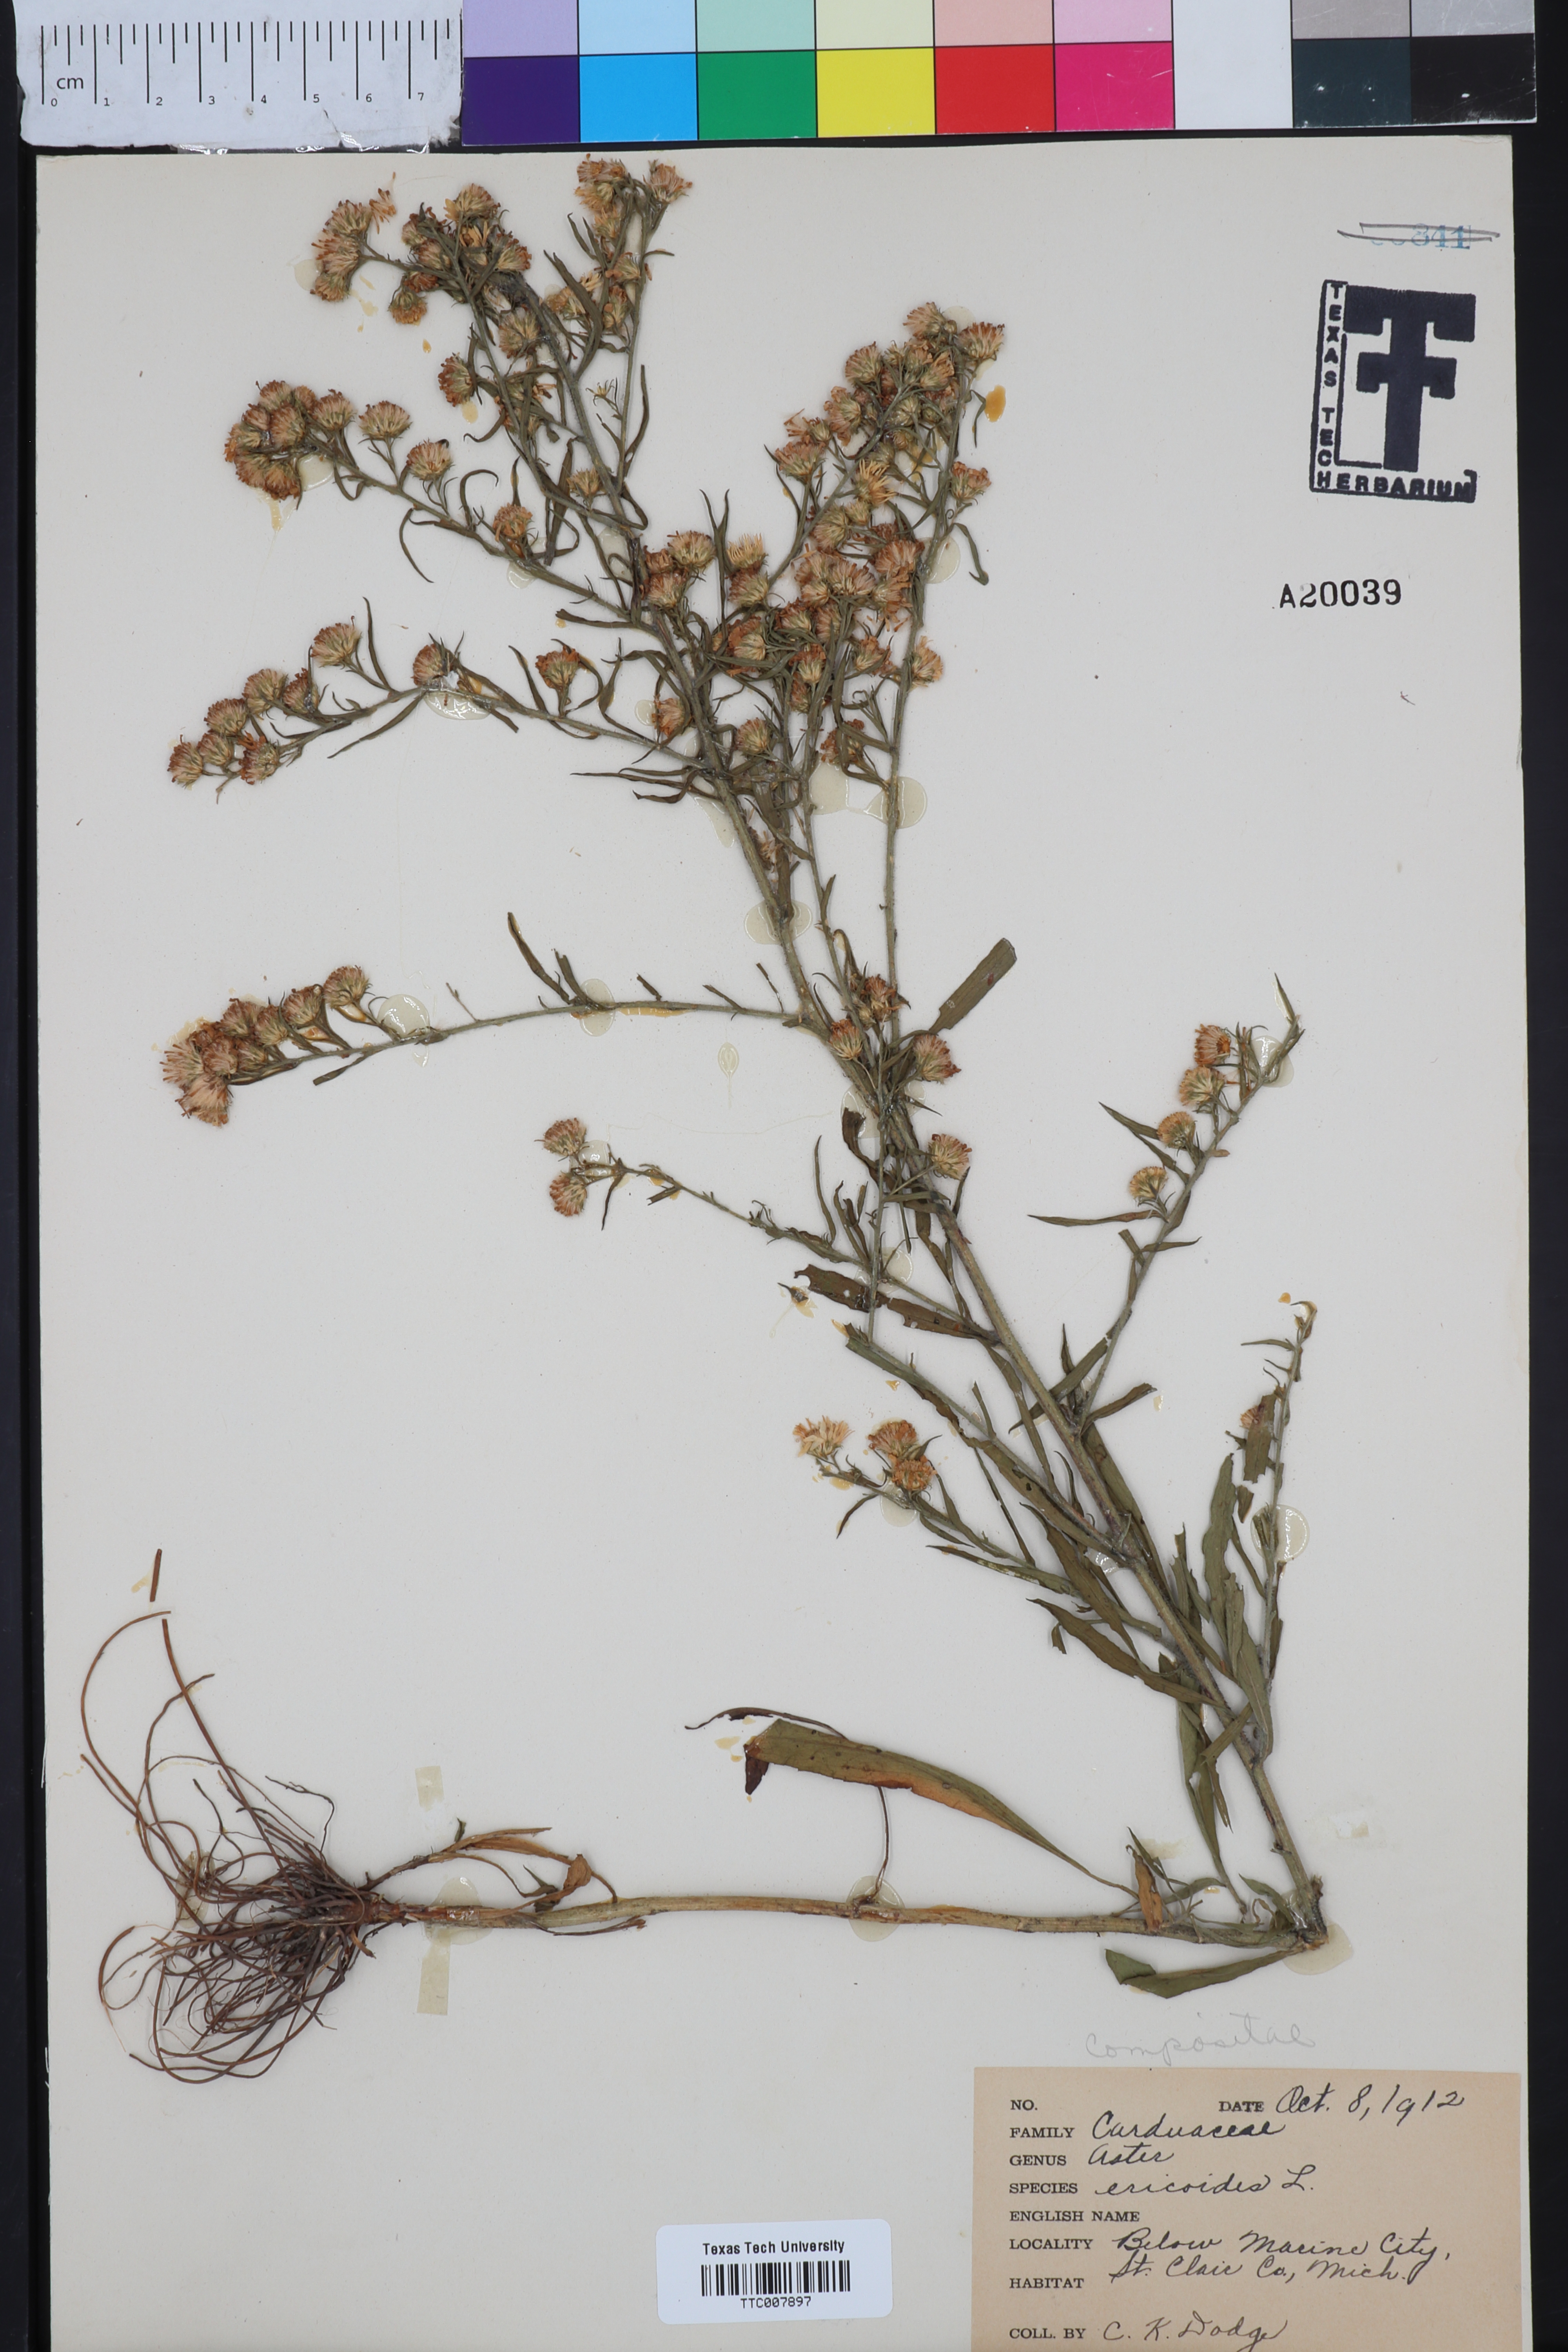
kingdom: Plantae
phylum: Tracheophyta
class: Magnoliopsida
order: Asterales
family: Asteraceae
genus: Symphyotrichum
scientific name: Symphyotrichum ericoides
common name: Heath aster
